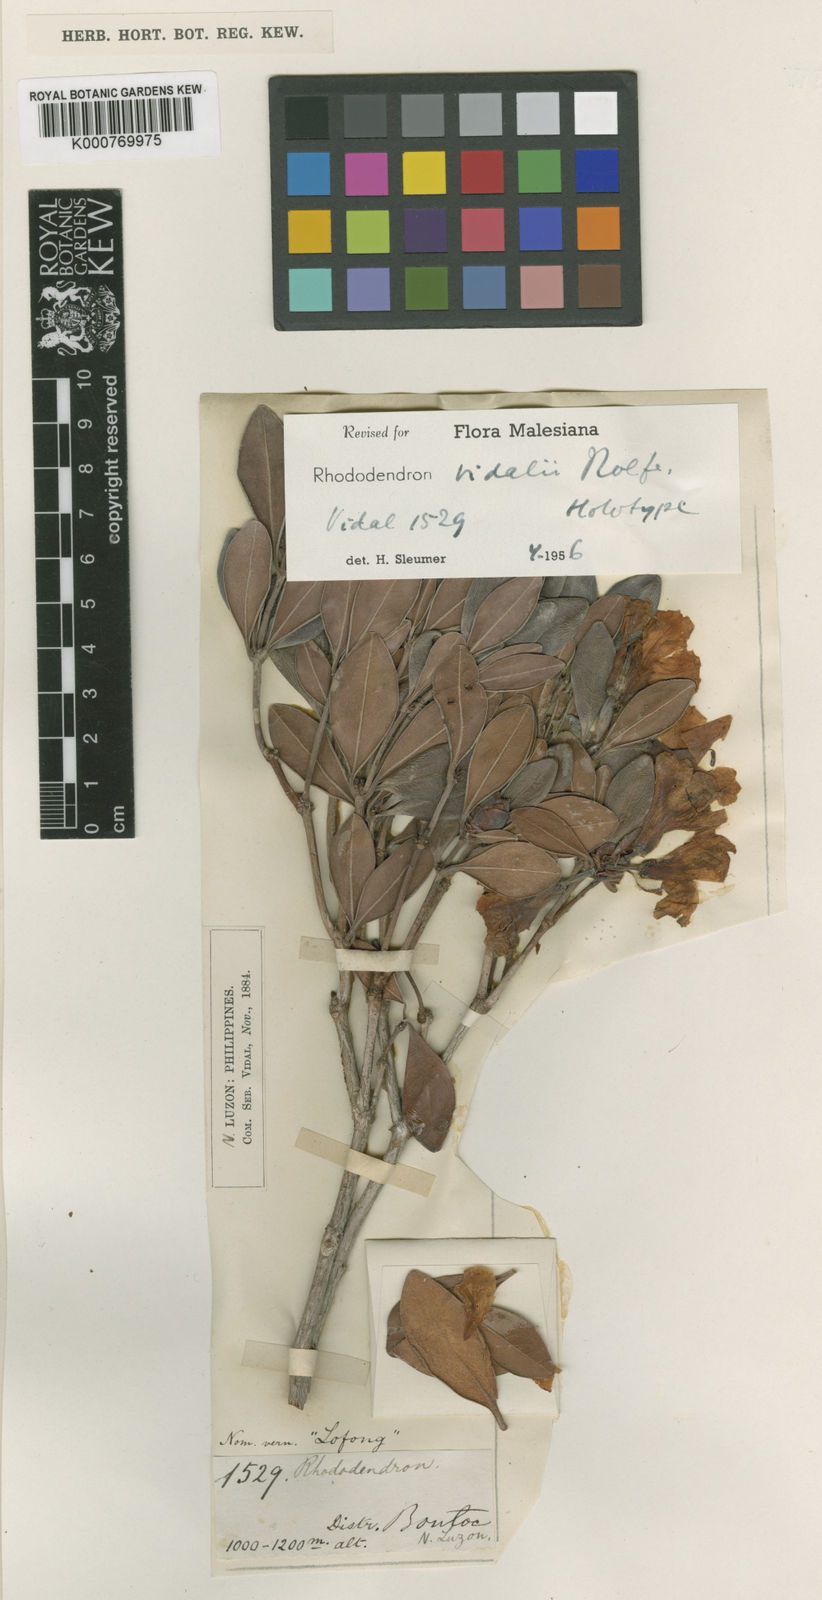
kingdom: Plantae
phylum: Tracheophyta
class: Magnoliopsida
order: Ericales
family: Ericaceae
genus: Rhododendron
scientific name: Rhododendron vidalii
